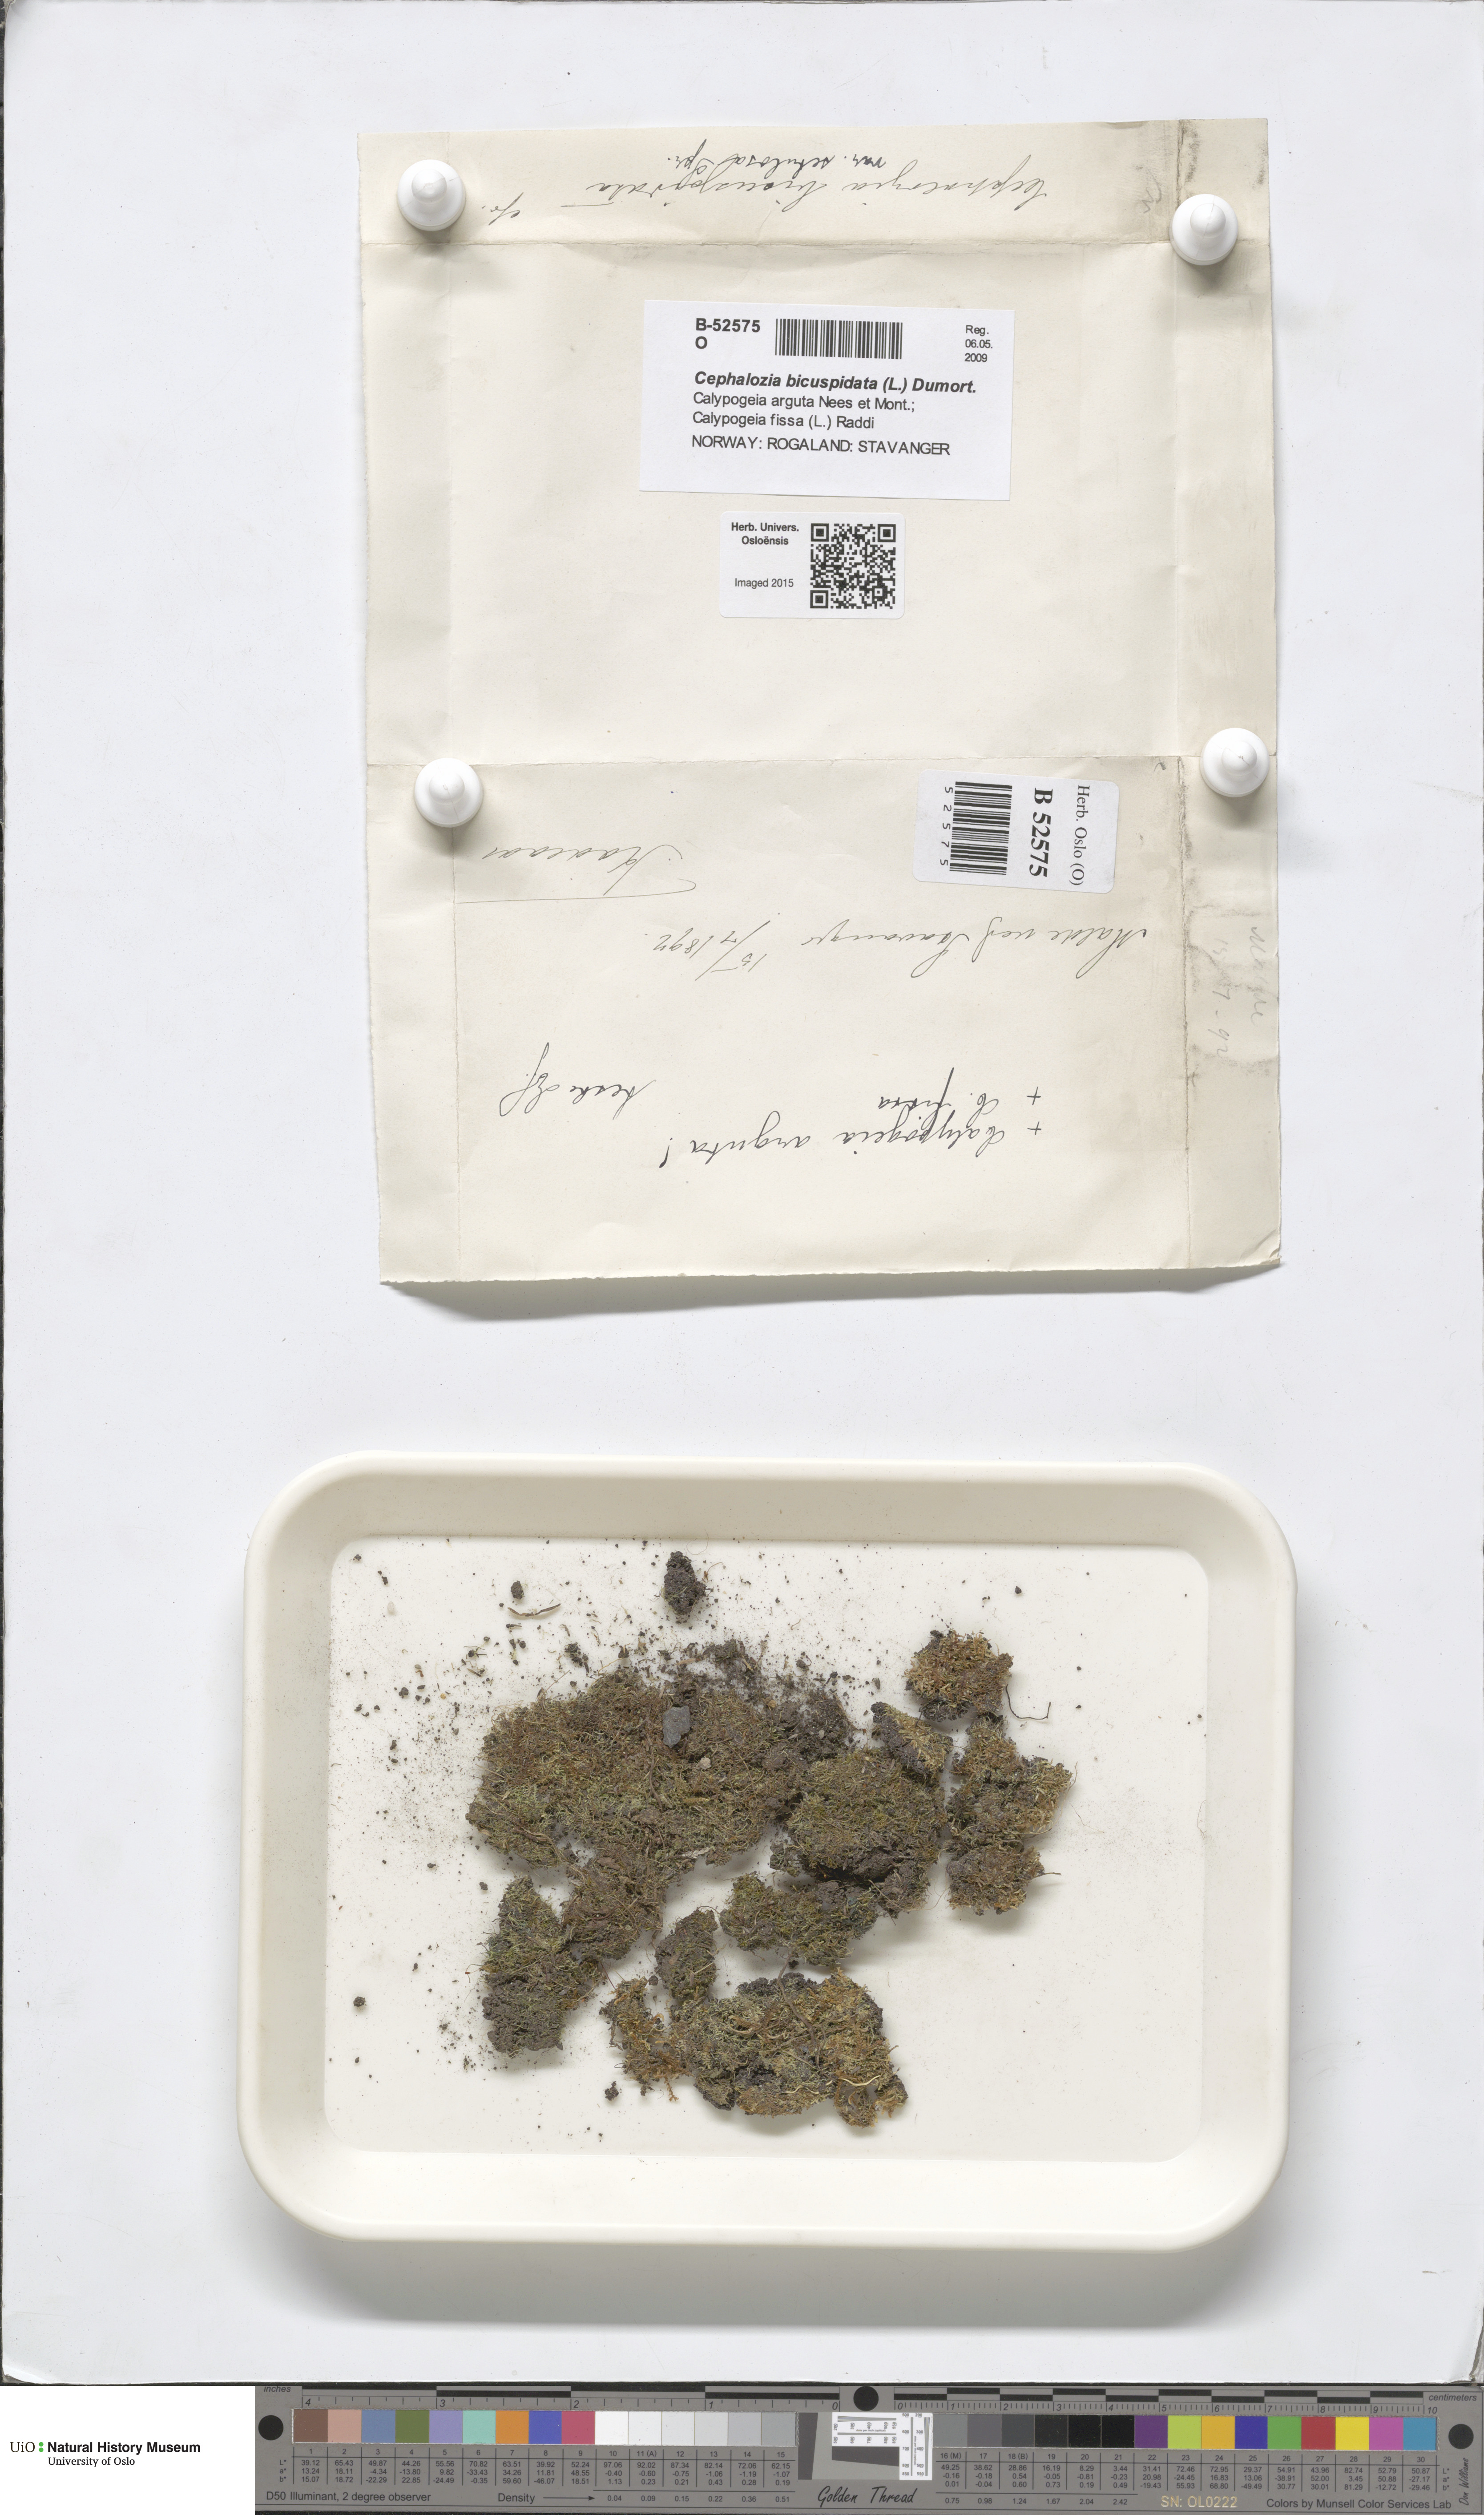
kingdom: Plantae
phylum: Marchantiophyta
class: Jungermanniopsida
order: Jungermanniales
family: Cephaloziaceae
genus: Cephalozia
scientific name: Cephalozia bicuspidata
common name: Two-horned pincerwort
